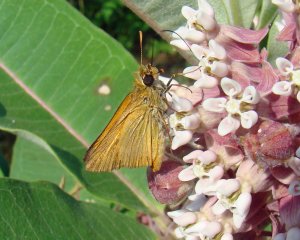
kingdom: Animalia
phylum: Arthropoda
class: Insecta
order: Lepidoptera
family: Hesperiidae
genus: Thymelicus
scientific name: Thymelicus lineola
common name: European Skipper
